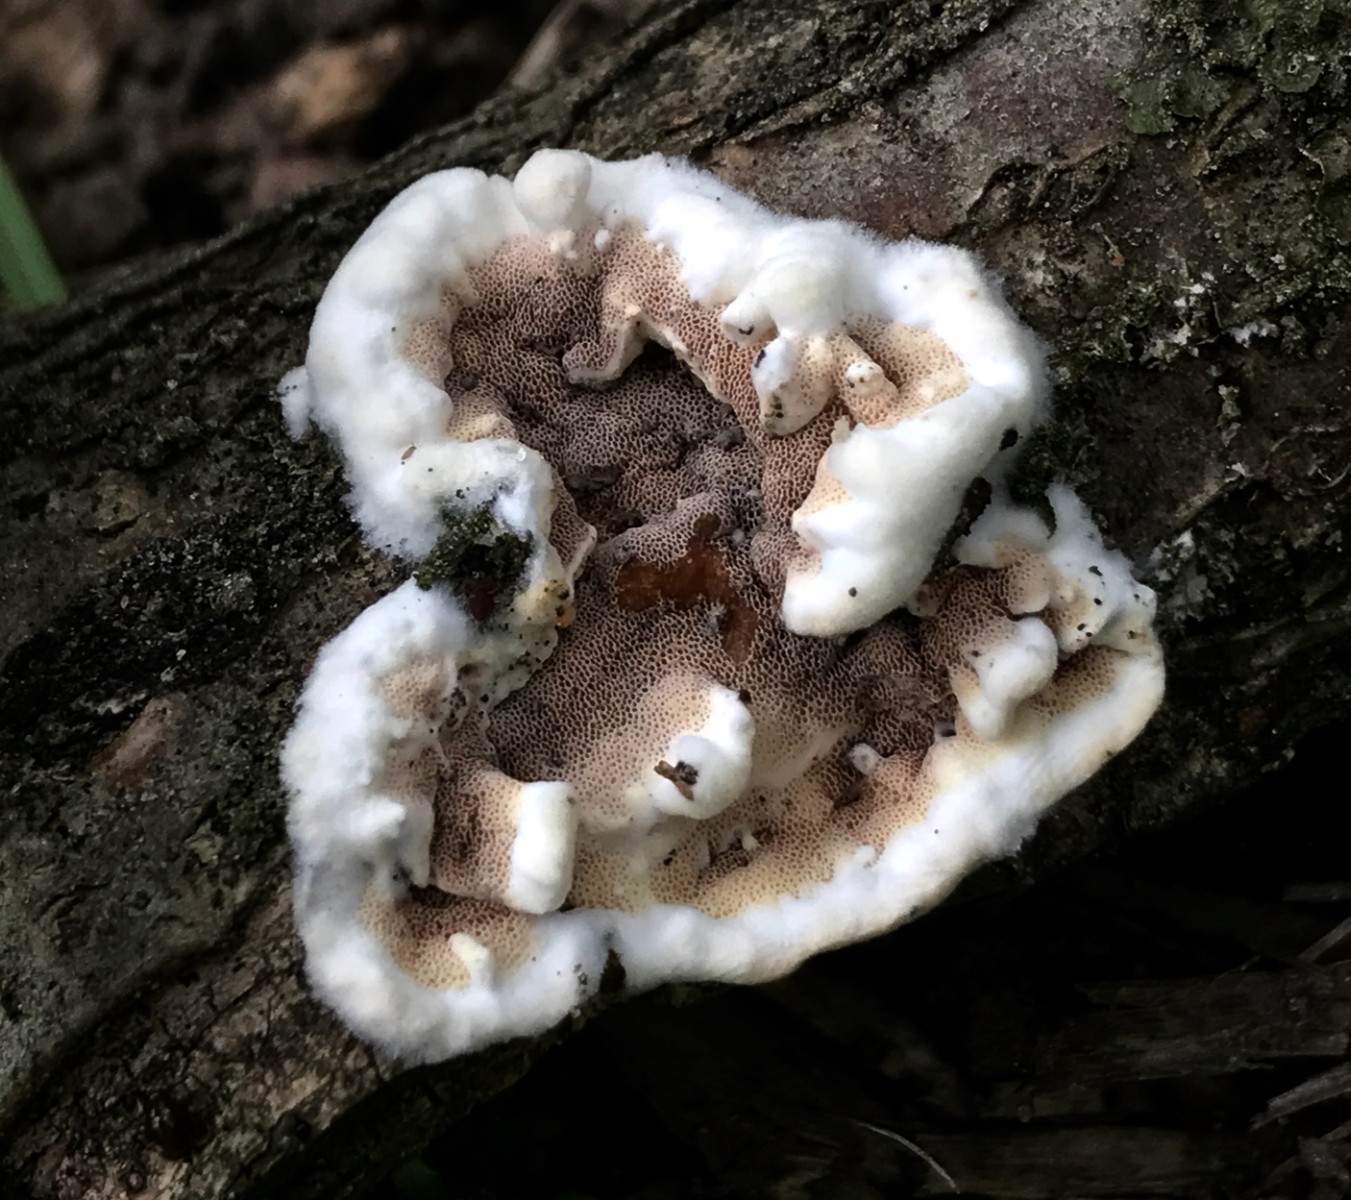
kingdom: Fungi
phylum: Basidiomycota
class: Agaricomycetes
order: Polyporales
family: Irpicaceae
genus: Vitreoporus
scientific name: Vitreoporus dichrous
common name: tofarvet foldporesvamp
